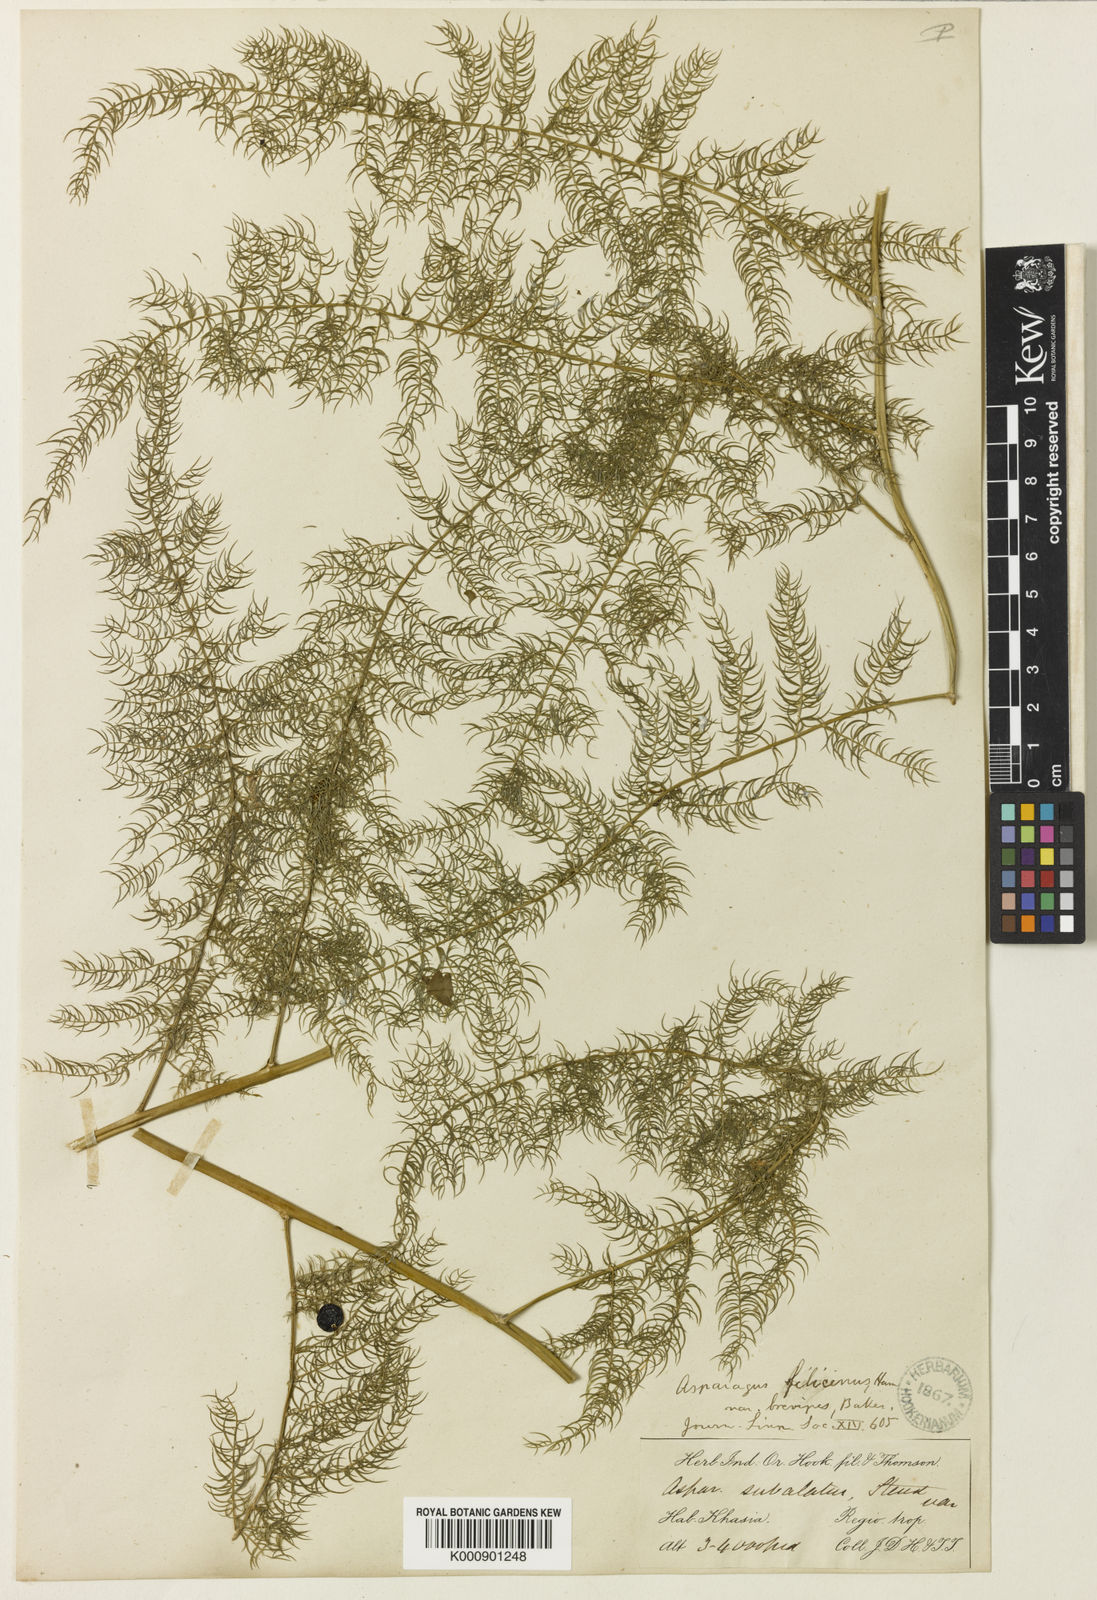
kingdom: Plantae
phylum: Tracheophyta
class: Liliopsida
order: Asparagales
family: Asparagaceae
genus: Asparagus
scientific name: Asparagus filicinus
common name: Fern asparagus
